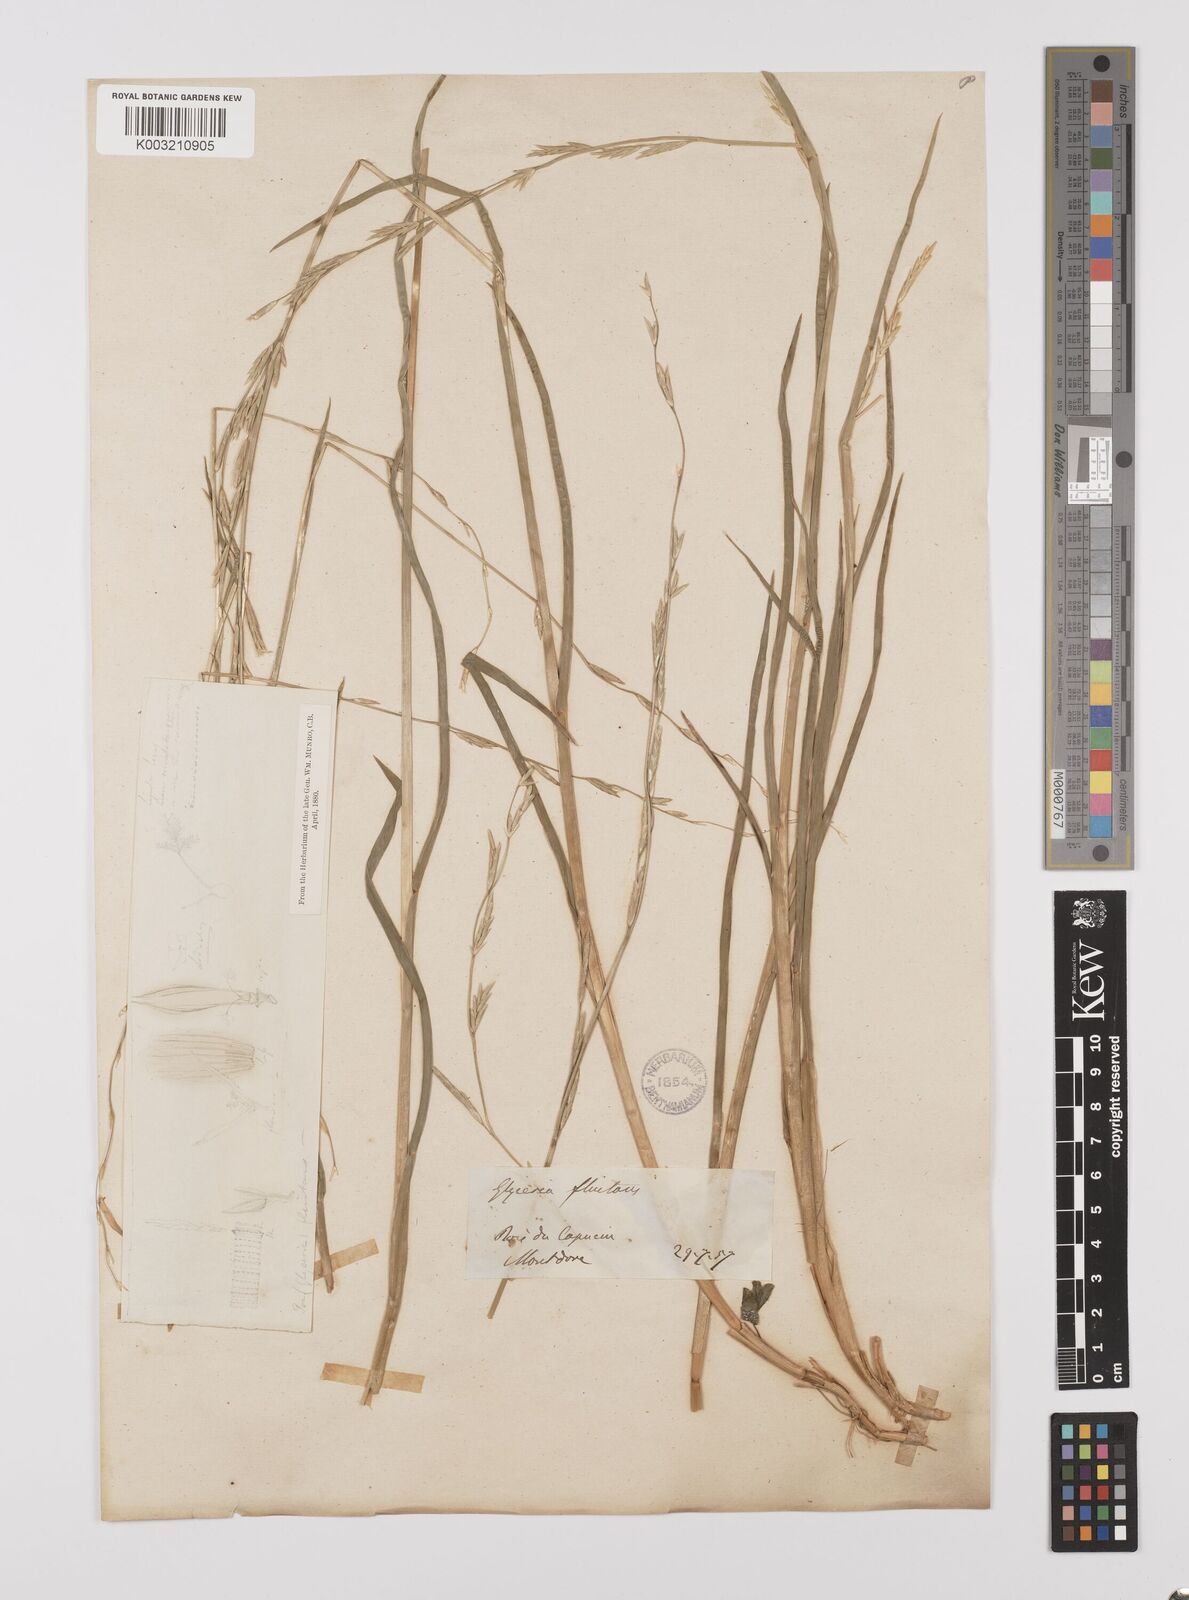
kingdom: Plantae
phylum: Tracheophyta
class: Liliopsida
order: Poales
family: Poaceae
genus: Glyceria
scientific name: Glyceria fluitans
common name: Floating sweet-grass
